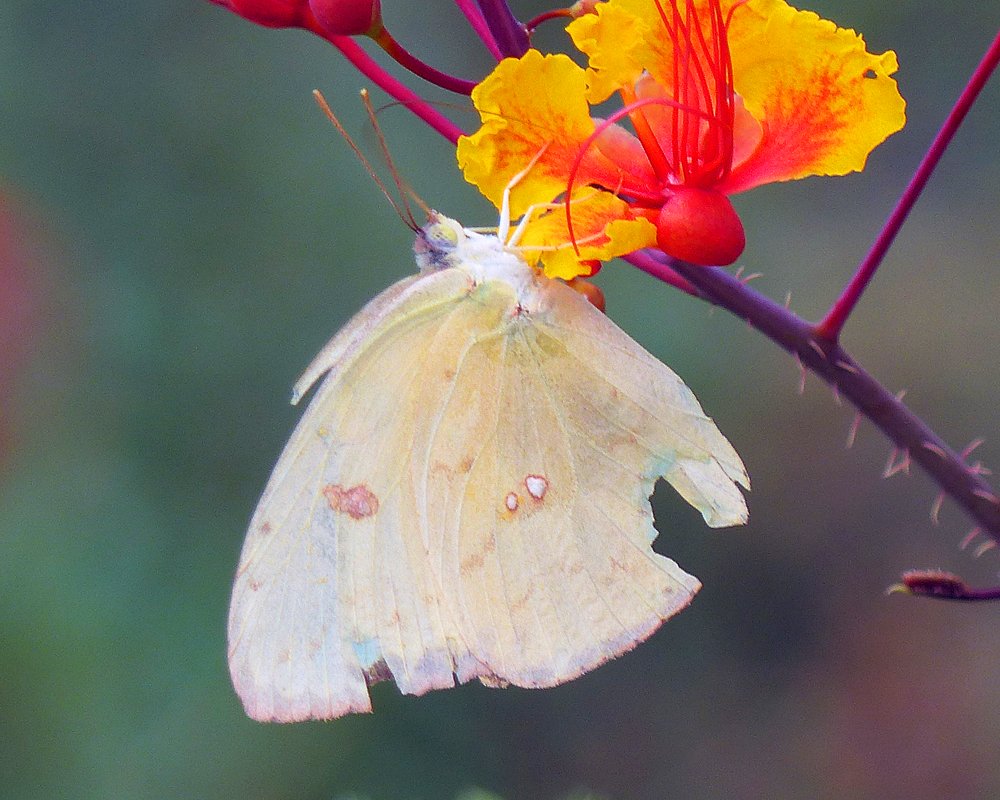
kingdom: Animalia
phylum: Arthropoda
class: Insecta
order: Lepidoptera
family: Pieridae
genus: Phoebis
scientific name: Phoebis sennae
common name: Cloudless Sulphur
